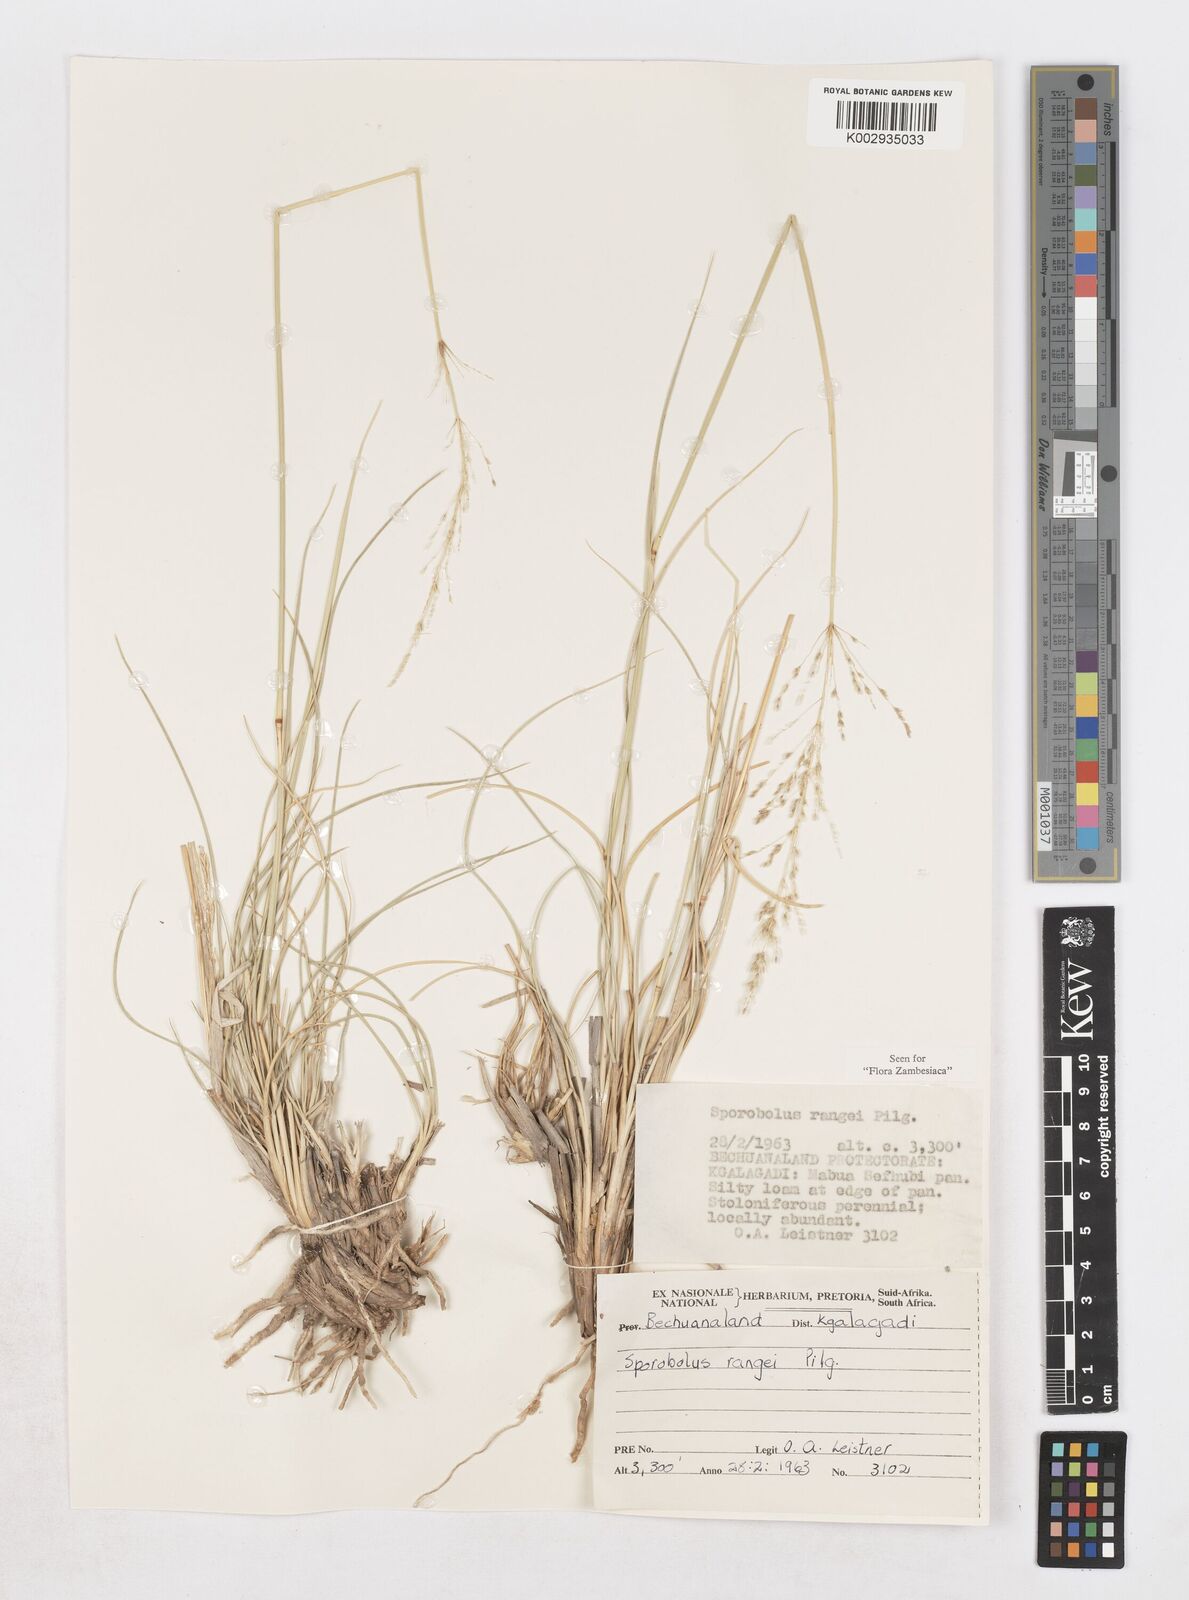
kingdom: Plantae
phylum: Tracheophyta
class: Liliopsida
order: Poales
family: Poaceae
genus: Sporobolus
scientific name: Sporobolus ioclados
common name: Pan dropseed
